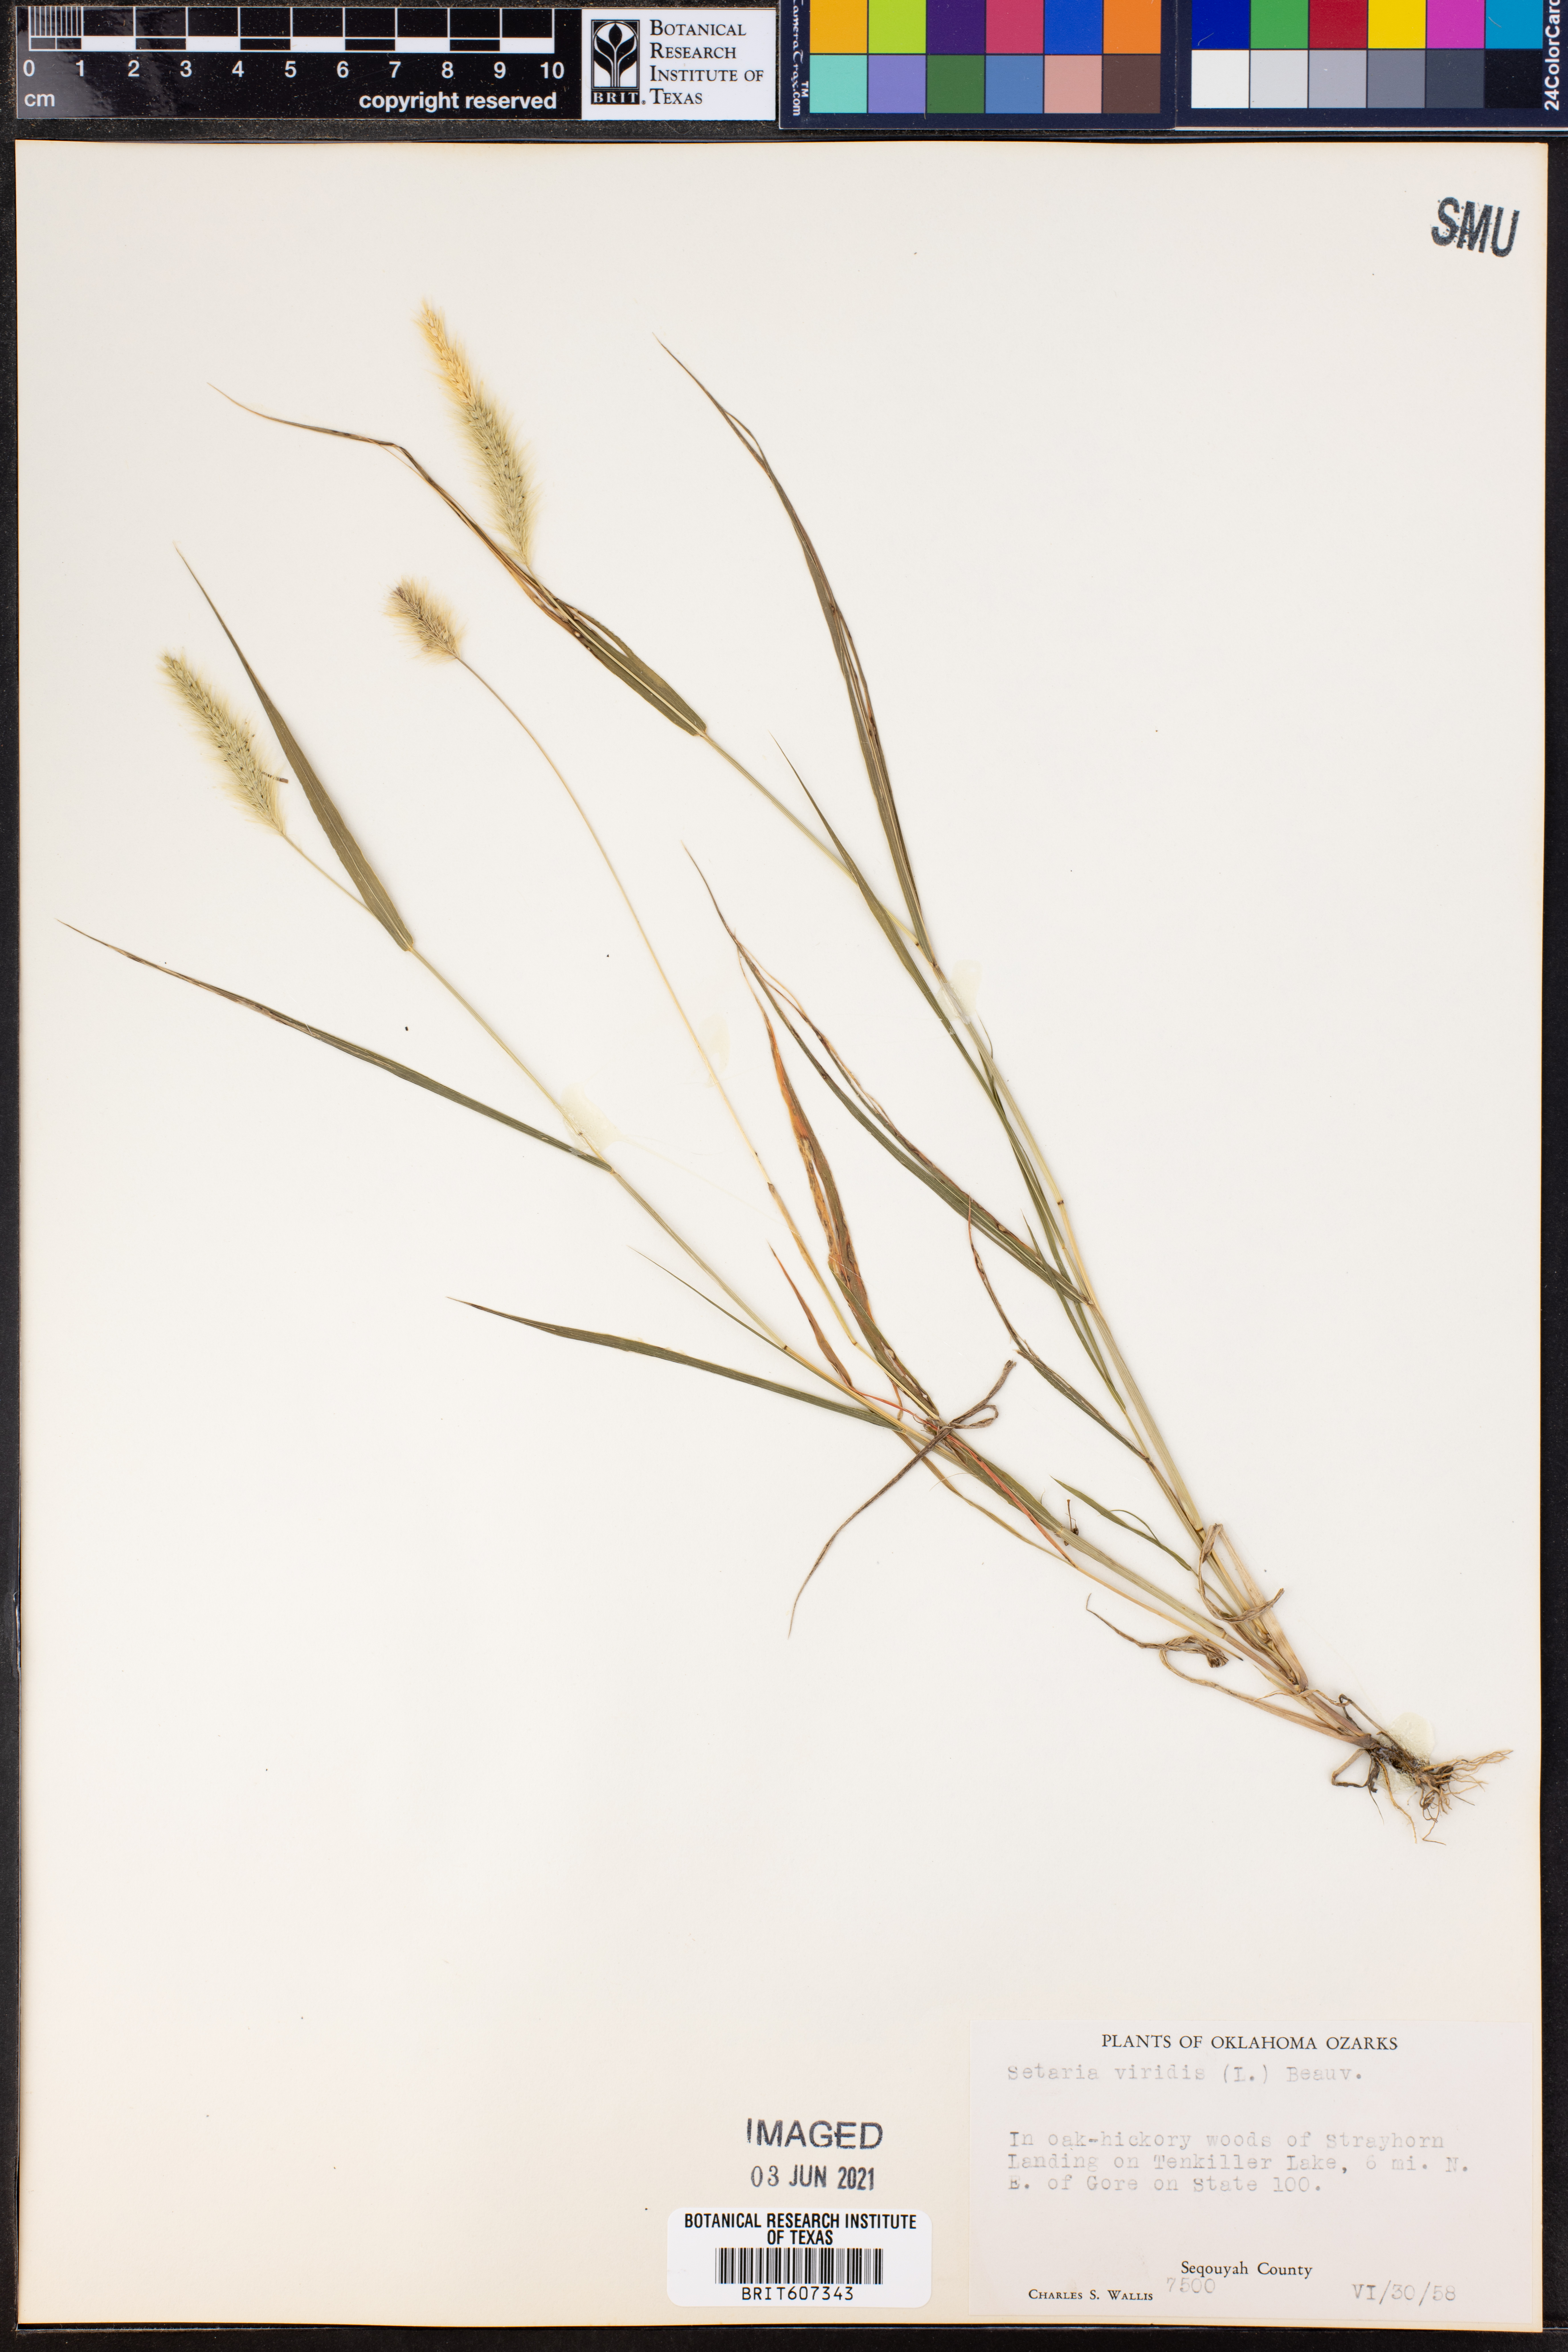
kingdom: Plantae
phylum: Tracheophyta
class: Liliopsida
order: Poales
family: Poaceae
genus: Setaria
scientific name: Setaria viridis
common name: Green bristlegrass
